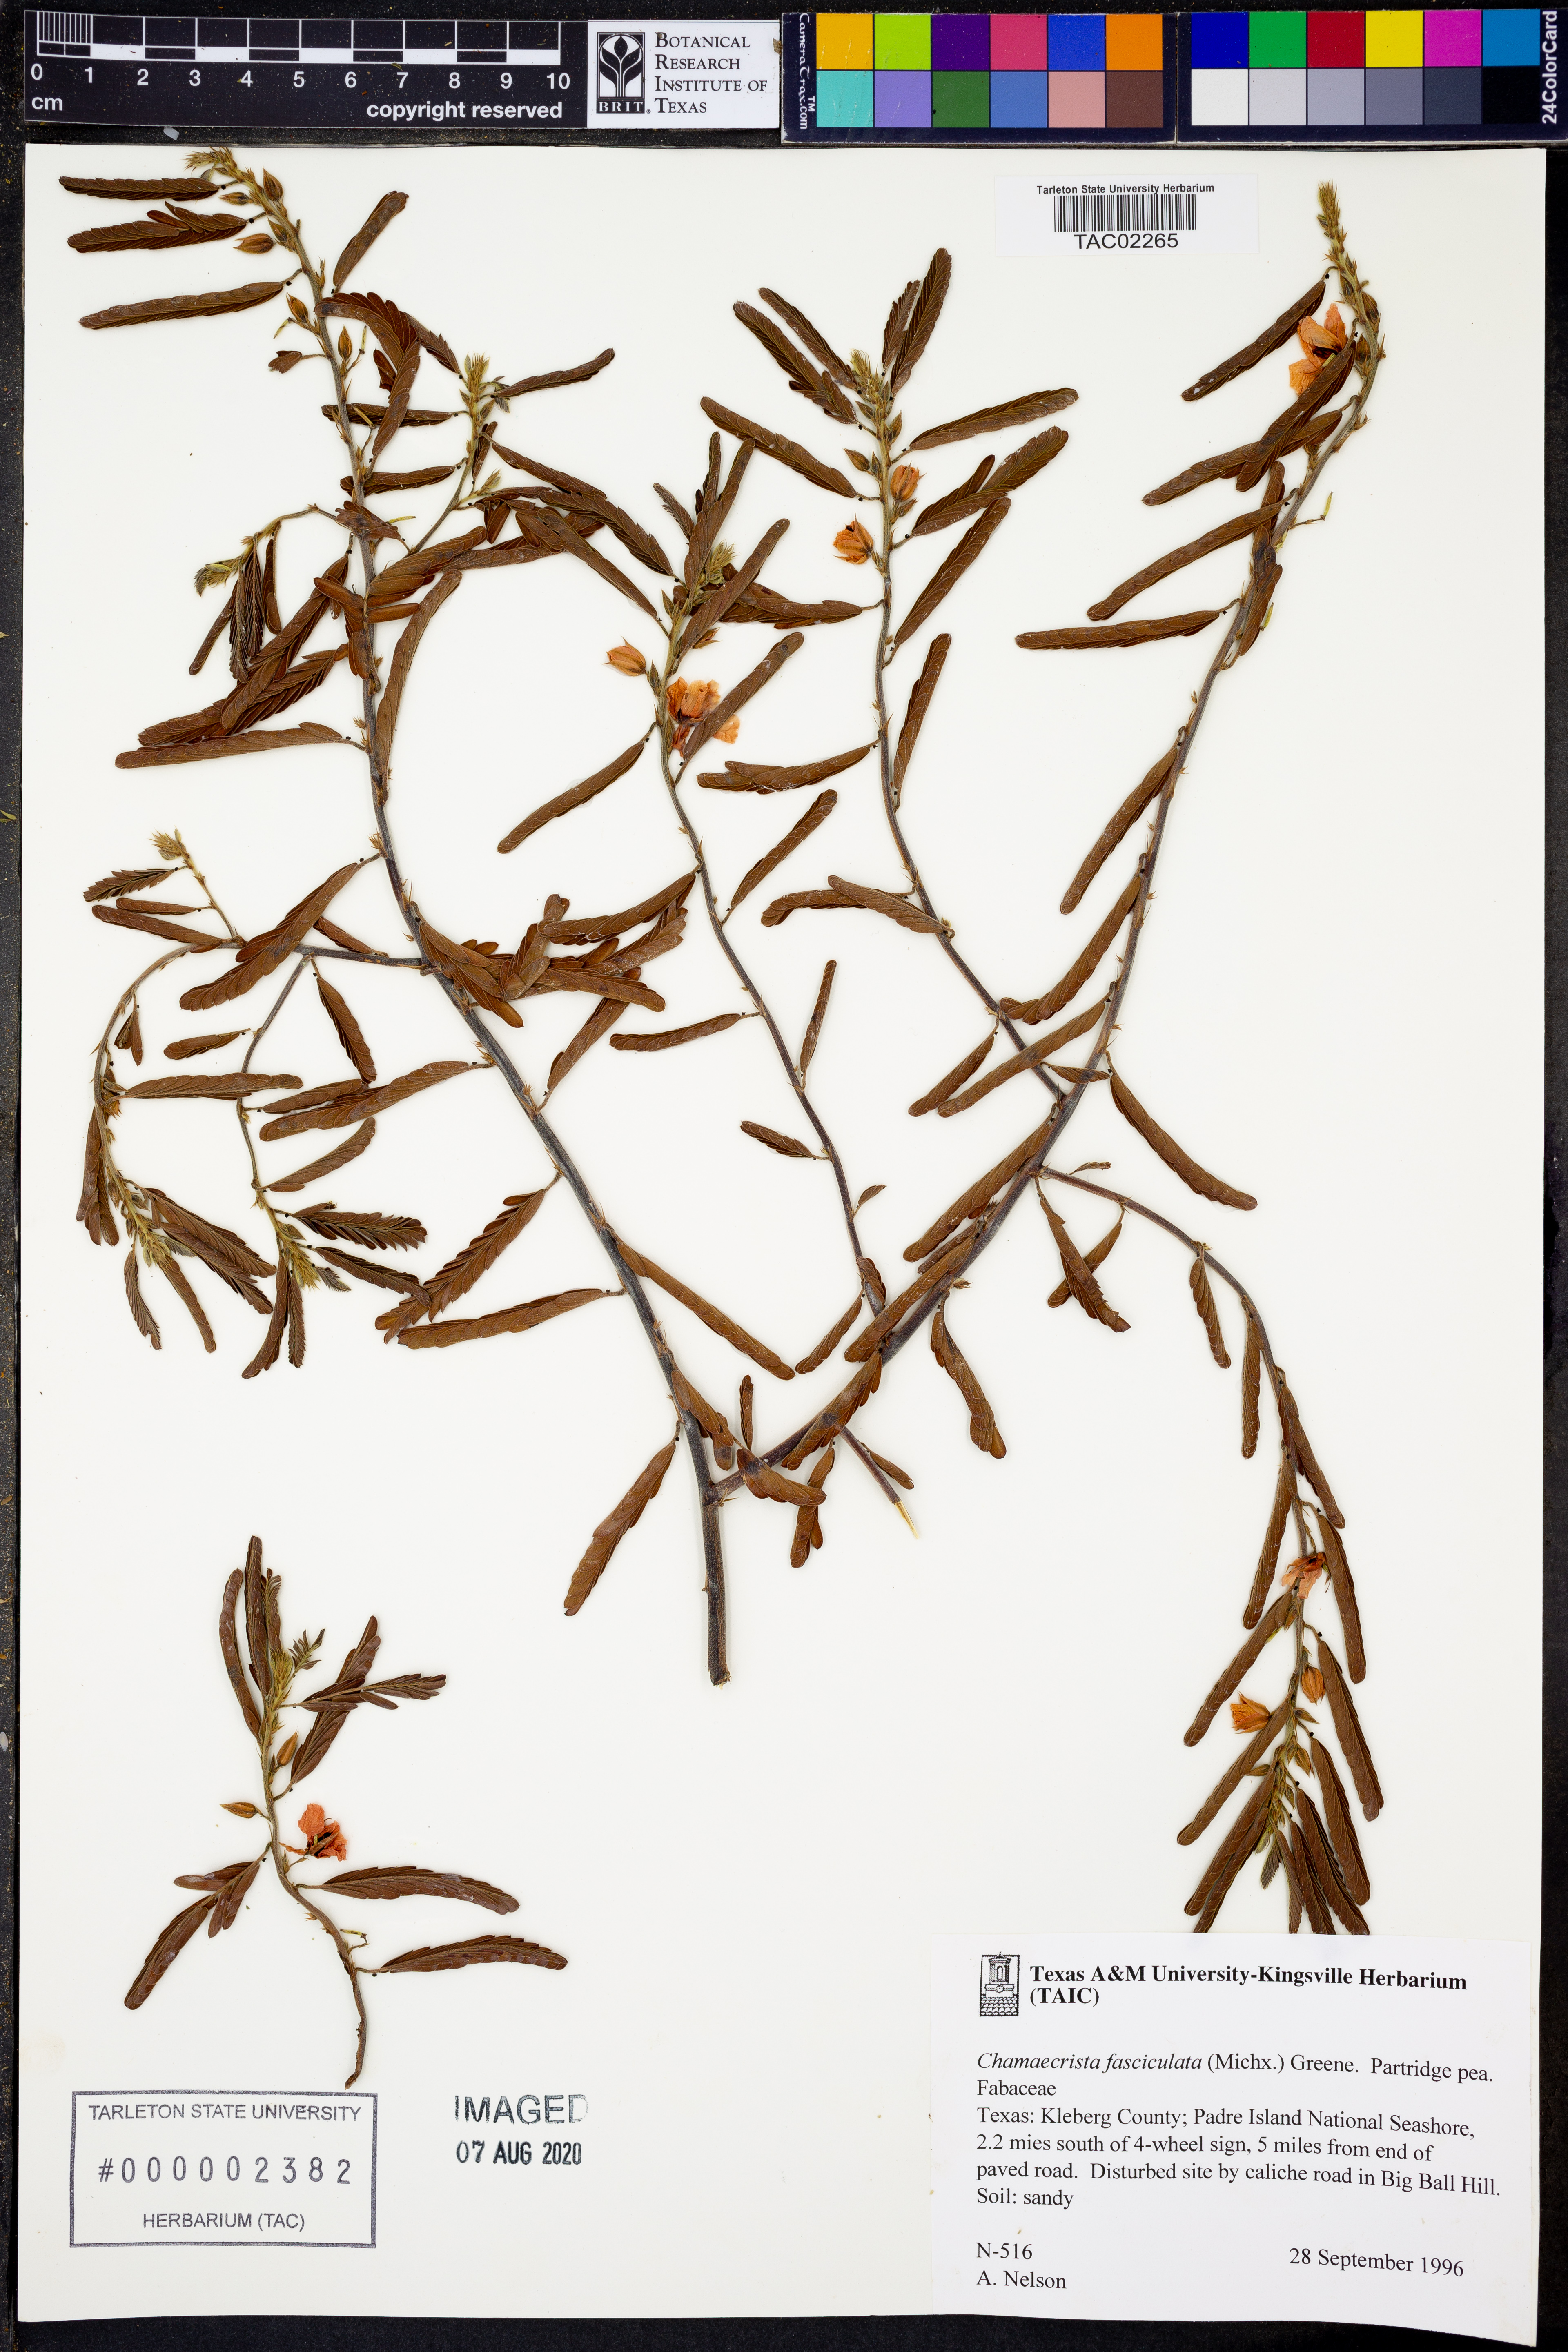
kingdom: Plantae
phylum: Tracheophyta
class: Magnoliopsida
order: Fabales
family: Fabaceae
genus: Chamaecrista
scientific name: Chamaecrista fasciculata
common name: Golden cassia
